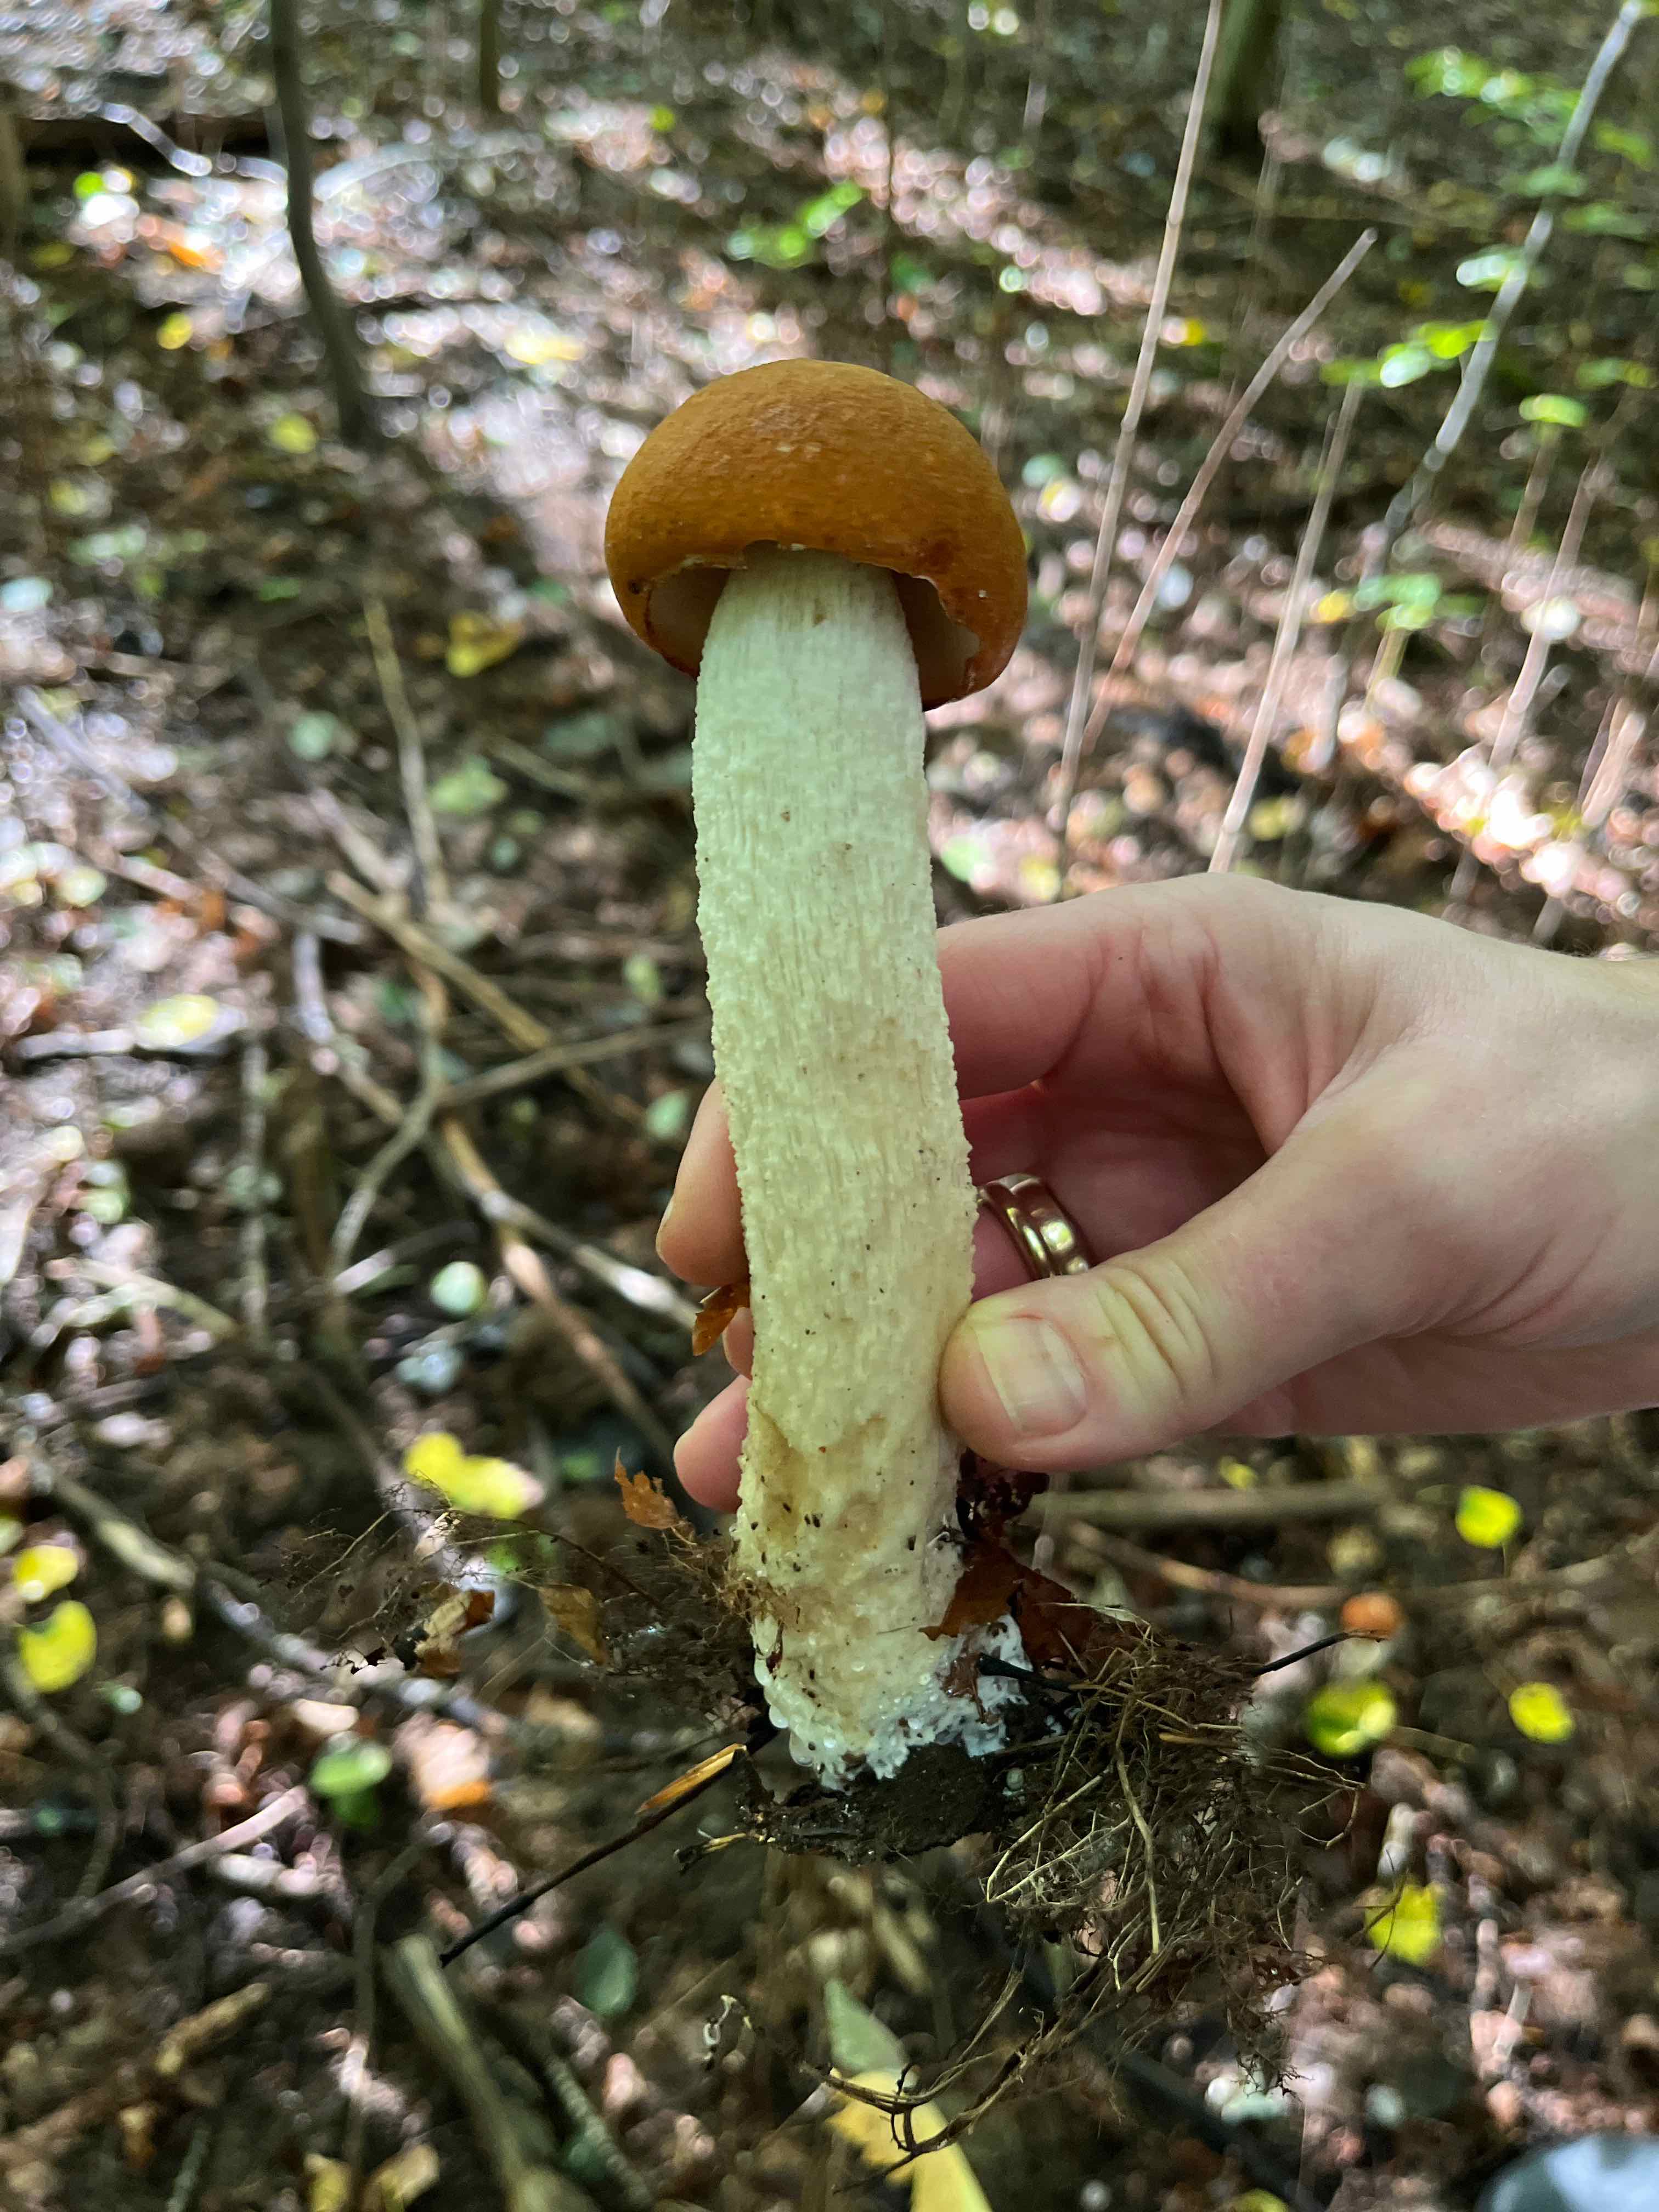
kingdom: Fungi
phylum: Basidiomycota
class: Agaricomycetes
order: Boletales
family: Boletaceae
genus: Leccinum
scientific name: Leccinum
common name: skælrørhat
